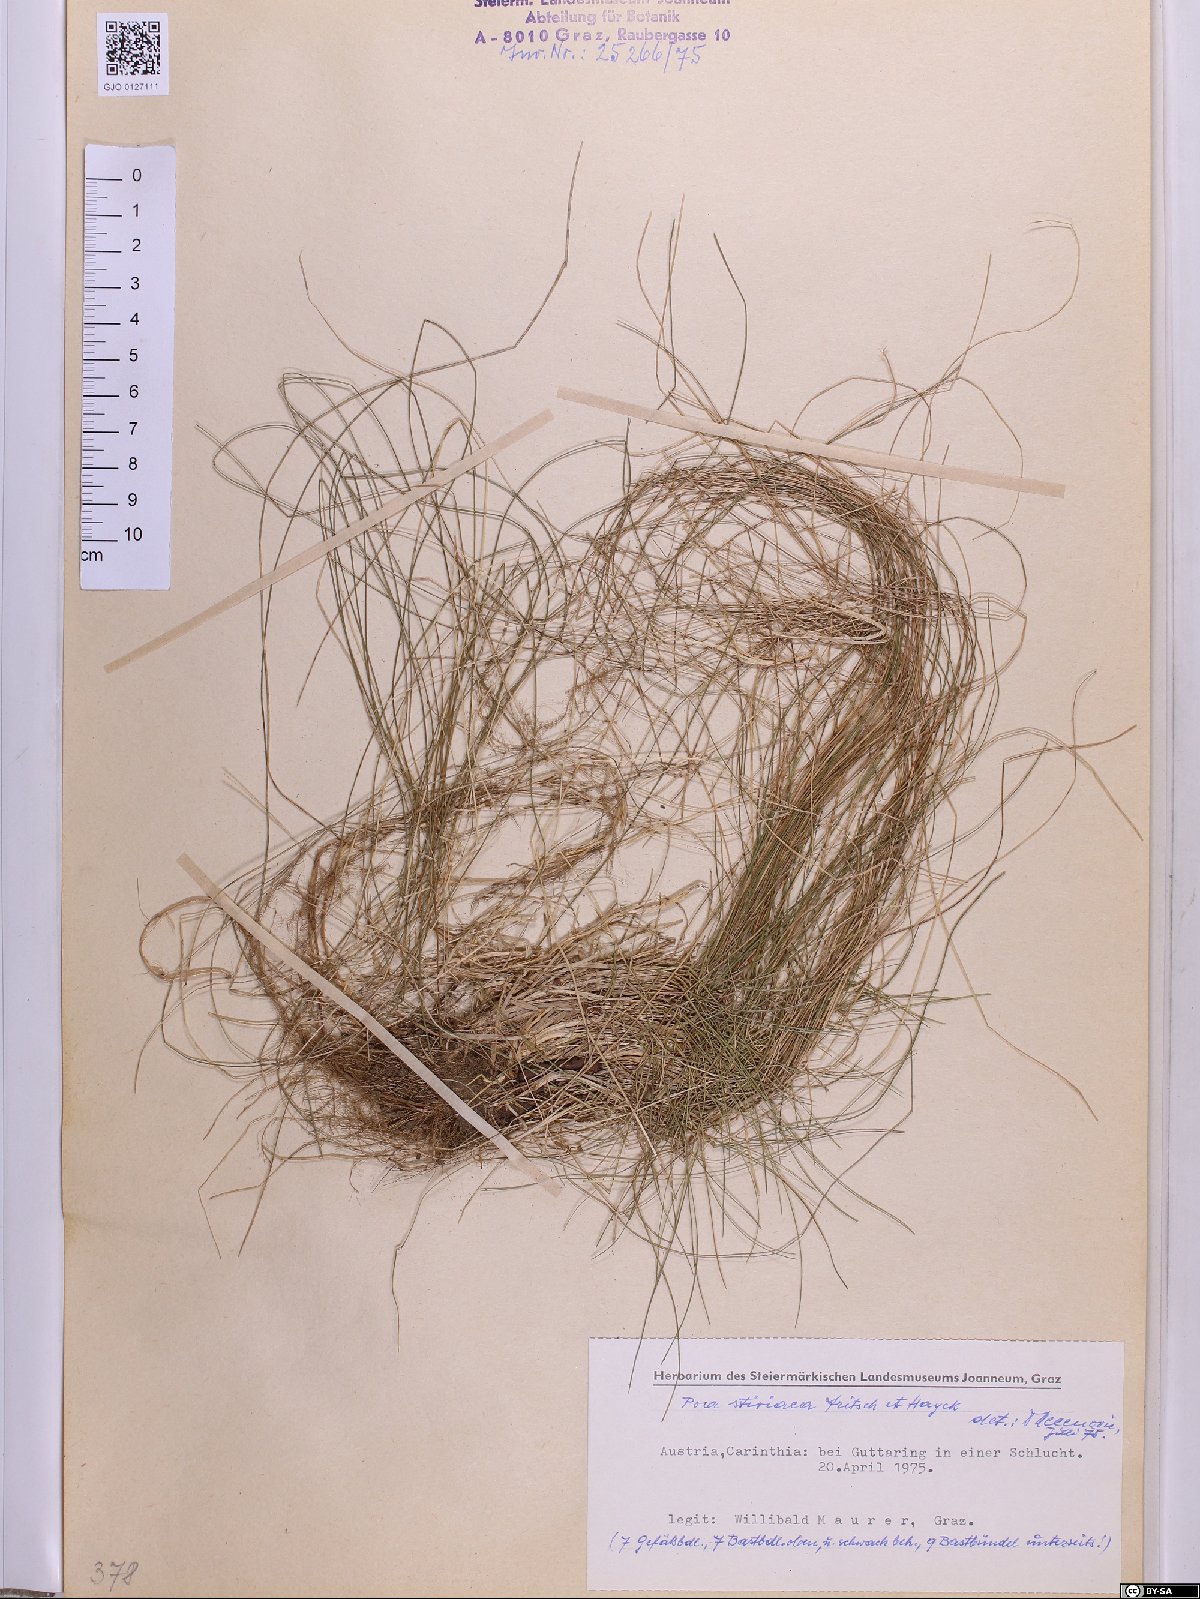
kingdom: Plantae
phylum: Tracheophyta
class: Liliopsida
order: Poales
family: Poaceae
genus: Poa
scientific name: Poa stiriaca
